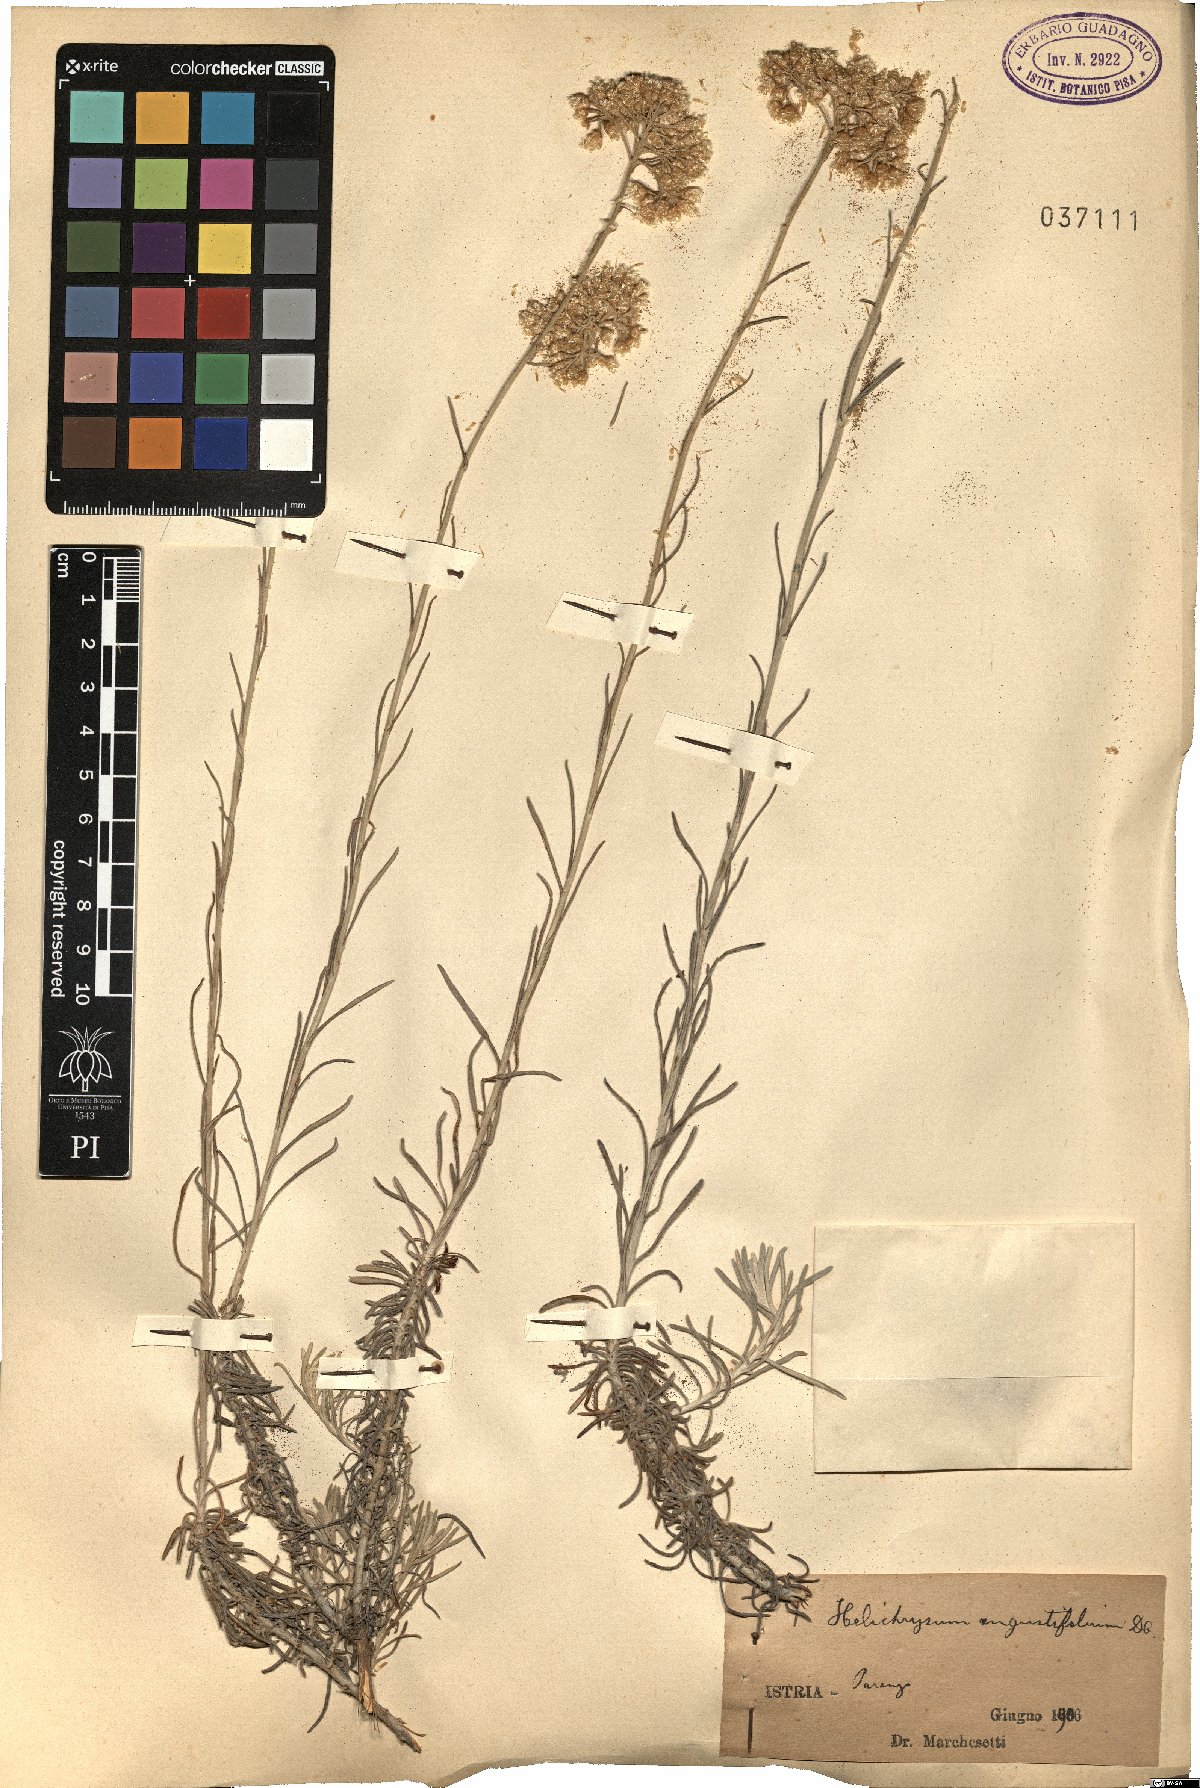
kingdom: Plantae
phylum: Tracheophyta
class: Magnoliopsida
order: Asterales
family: Asteraceae
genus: Helichrysum
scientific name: Helichrysum litoreum
